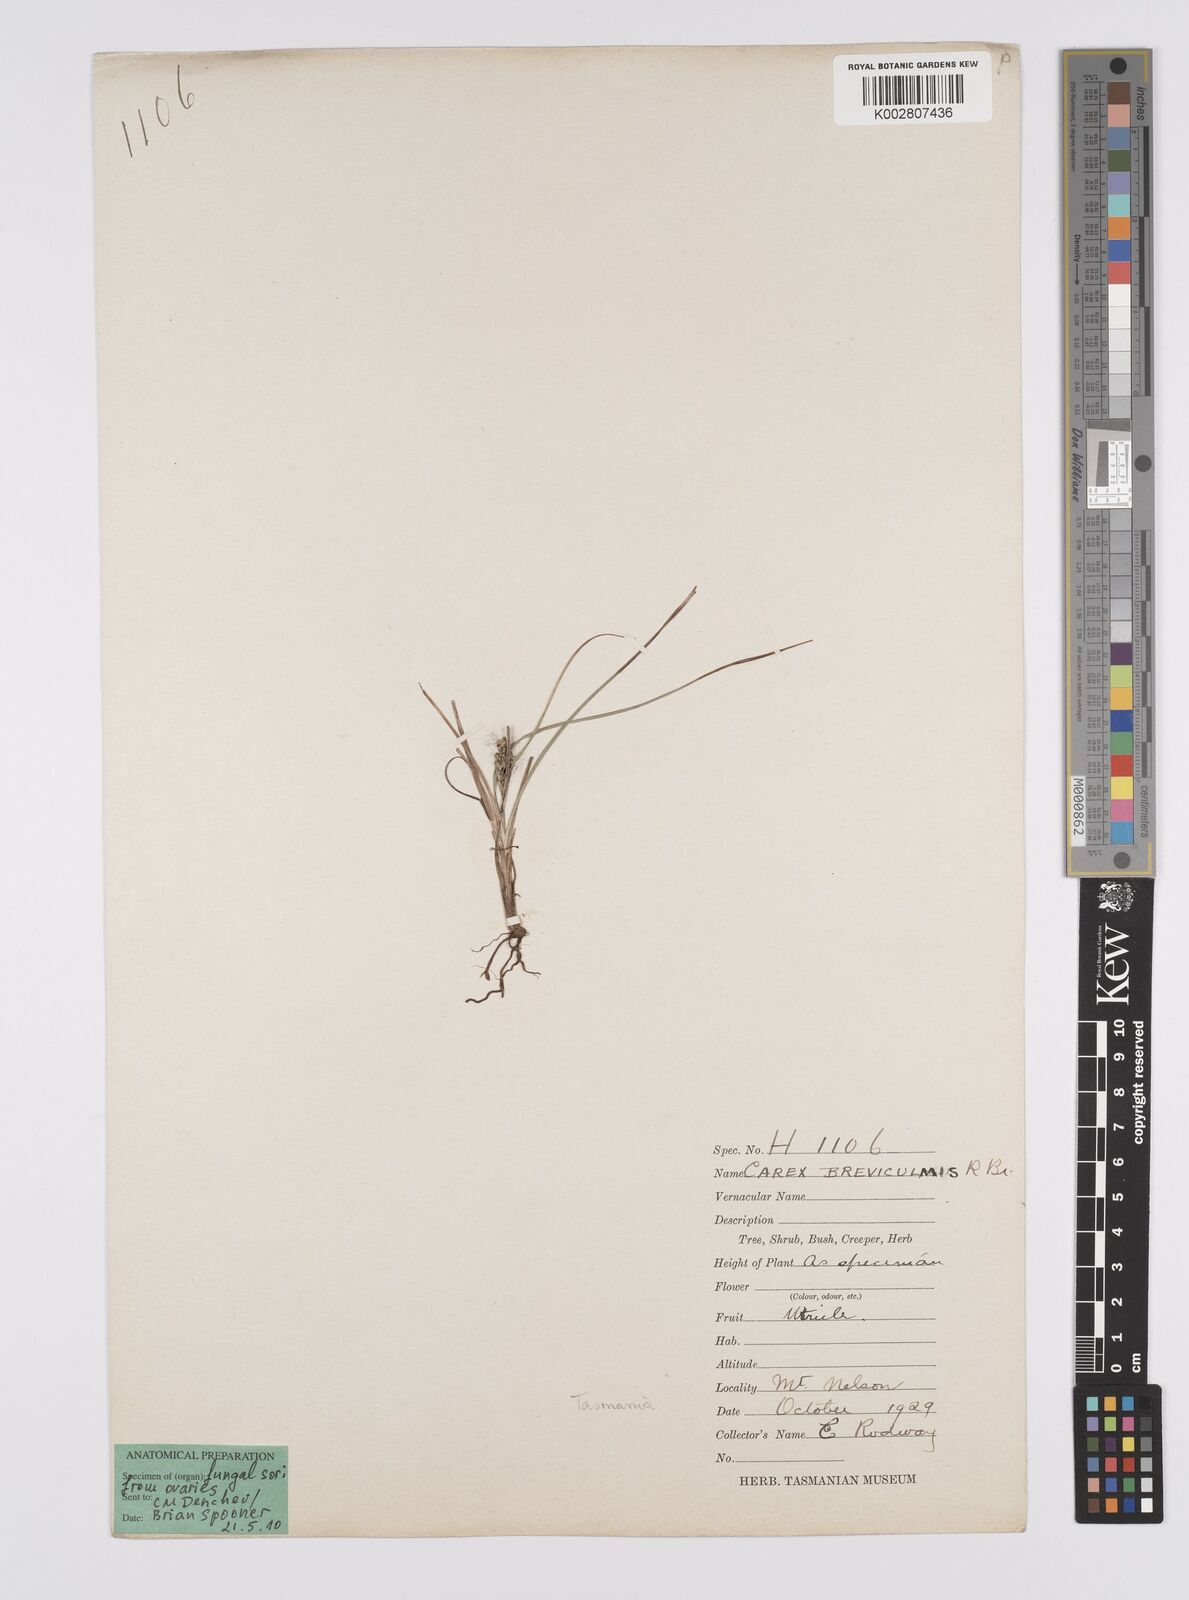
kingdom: Plantae
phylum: Tracheophyta
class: Liliopsida
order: Poales
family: Cyperaceae
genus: Carex
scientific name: Carex breviculmis
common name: Asian shortstem sedge
